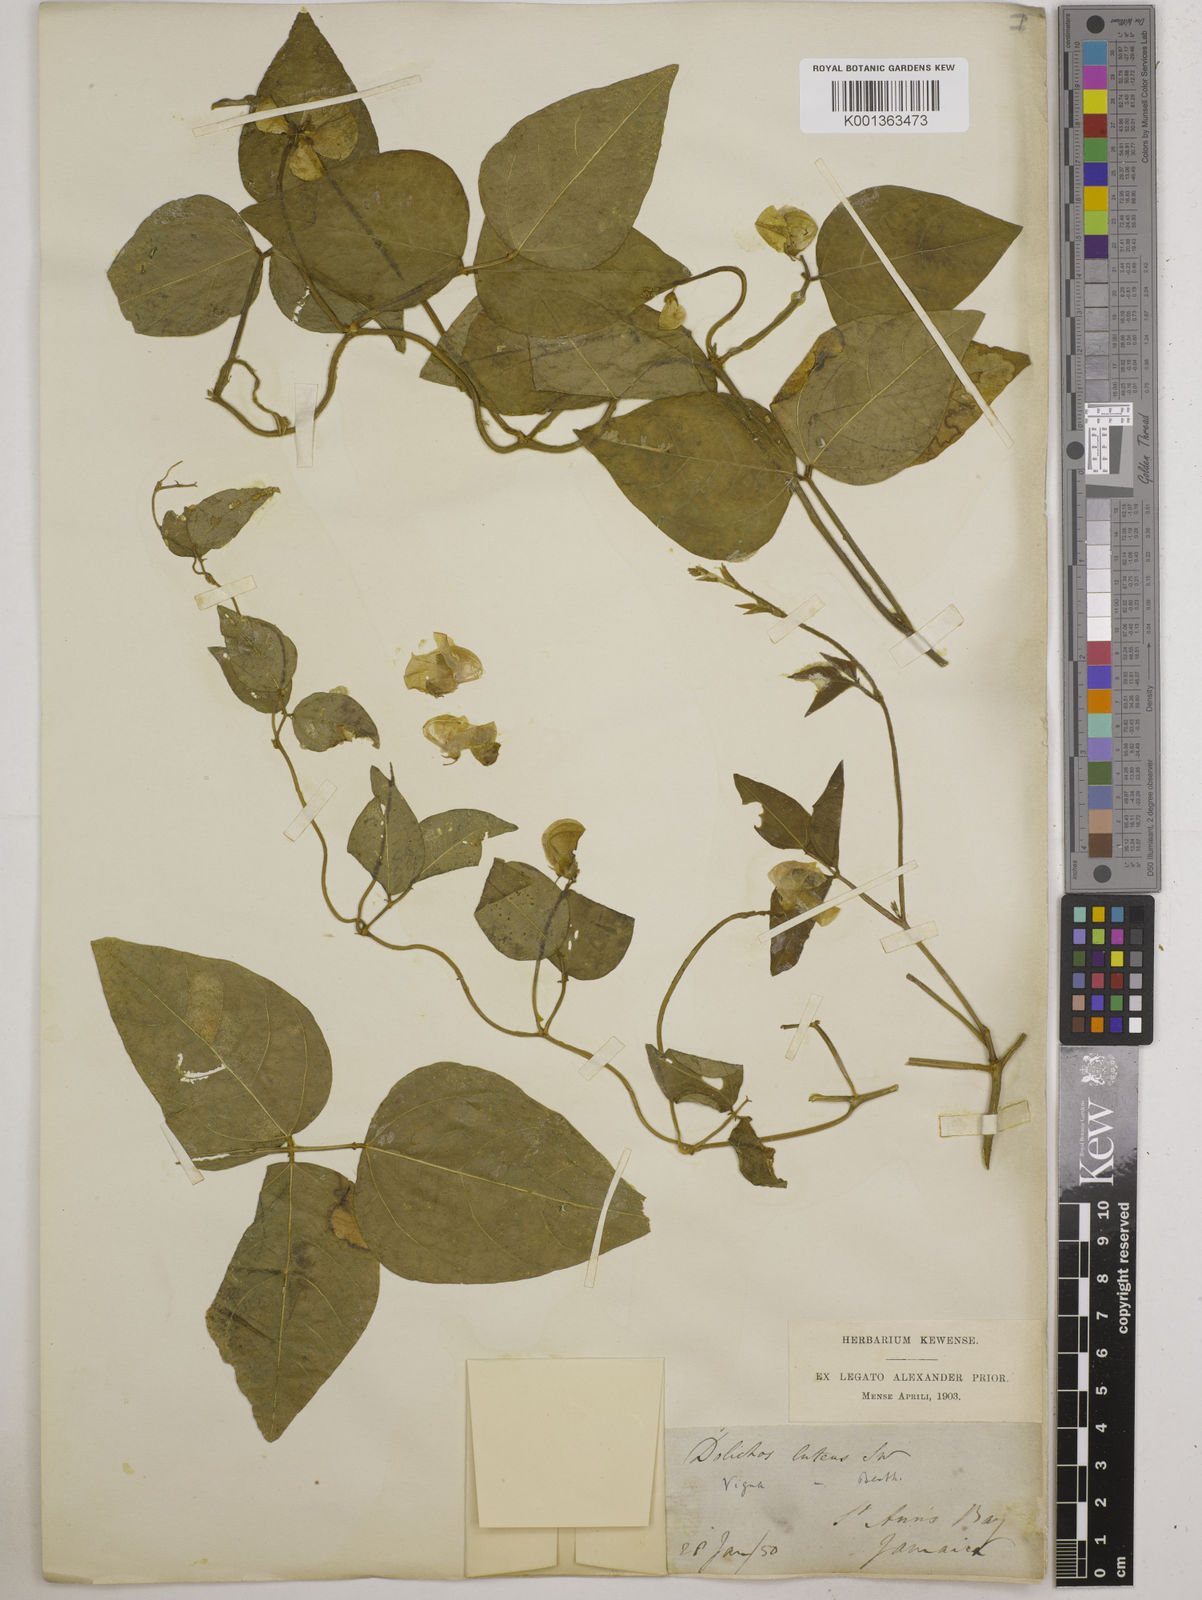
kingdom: Plantae
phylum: Tracheophyta
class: Magnoliopsida
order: Fabales
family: Fabaceae
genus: Vigna
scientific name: Vigna luteola
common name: Hairypod cowpea
